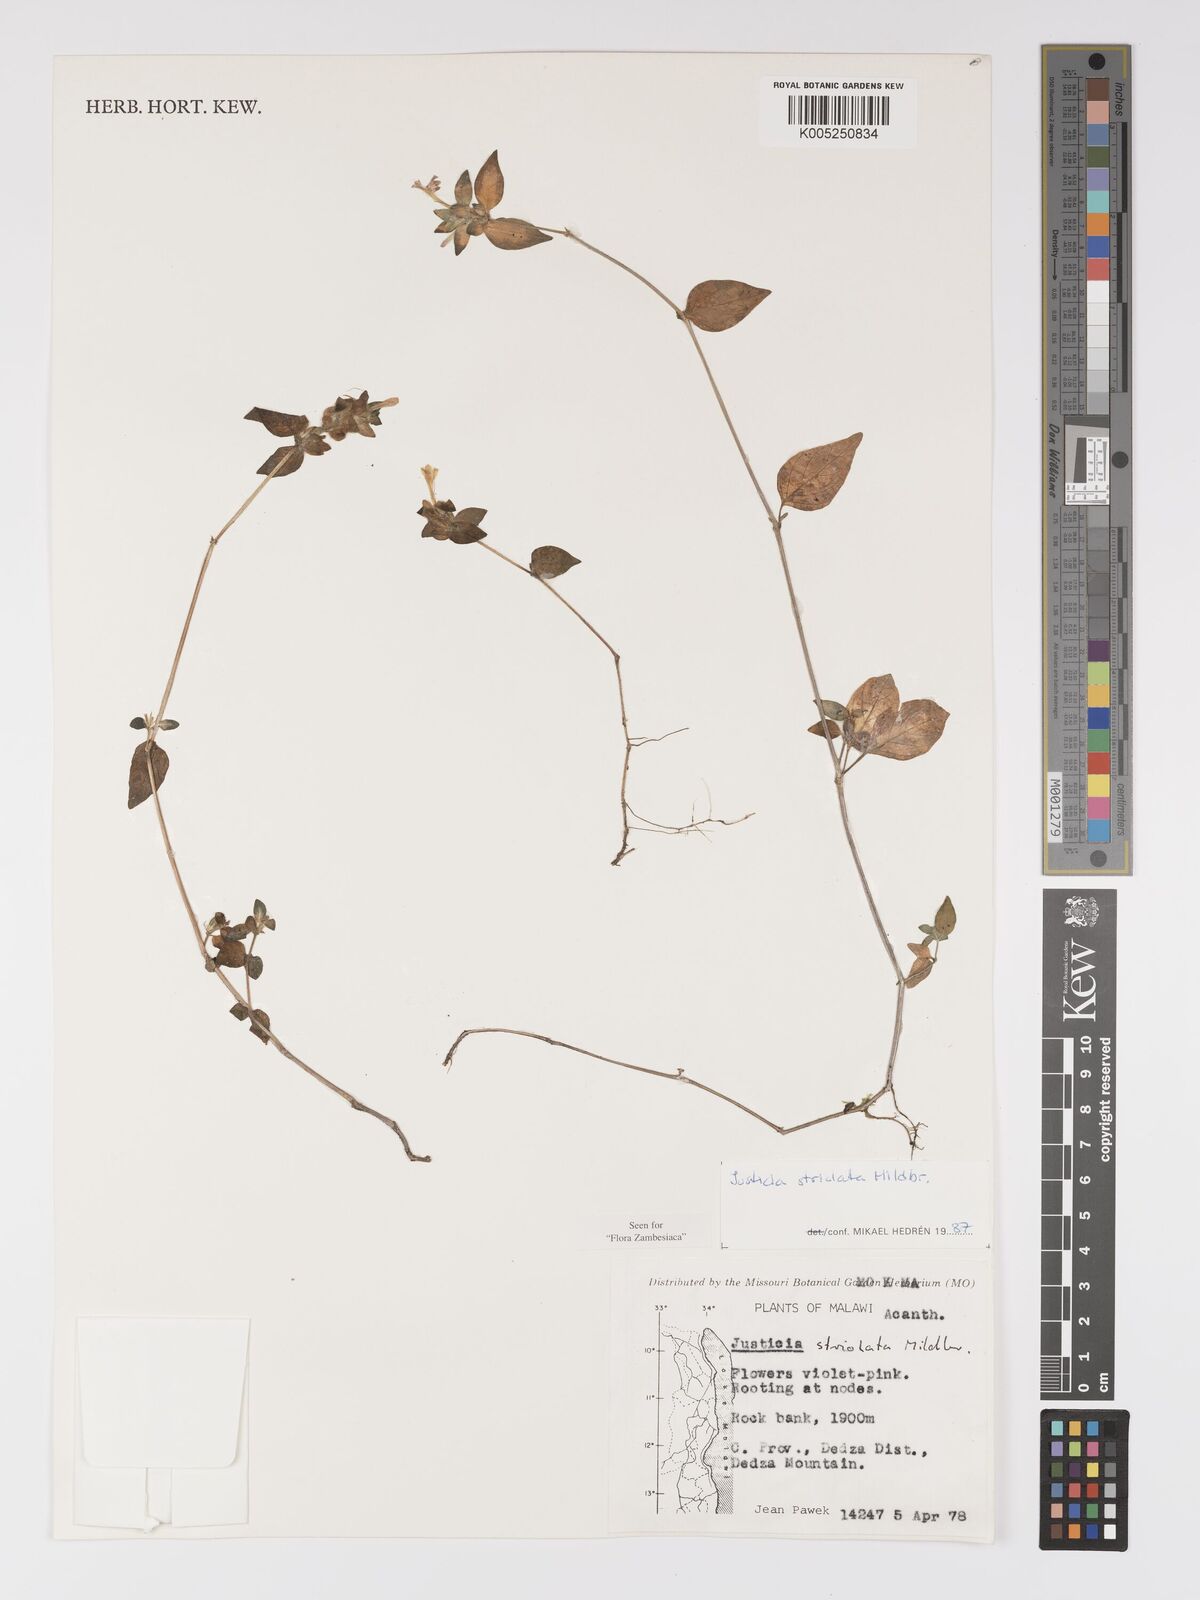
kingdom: Plantae
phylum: Tracheophyta
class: Magnoliopsida
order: Lamiales
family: Acanthaceae
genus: Justicia
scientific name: Justicia striolata
